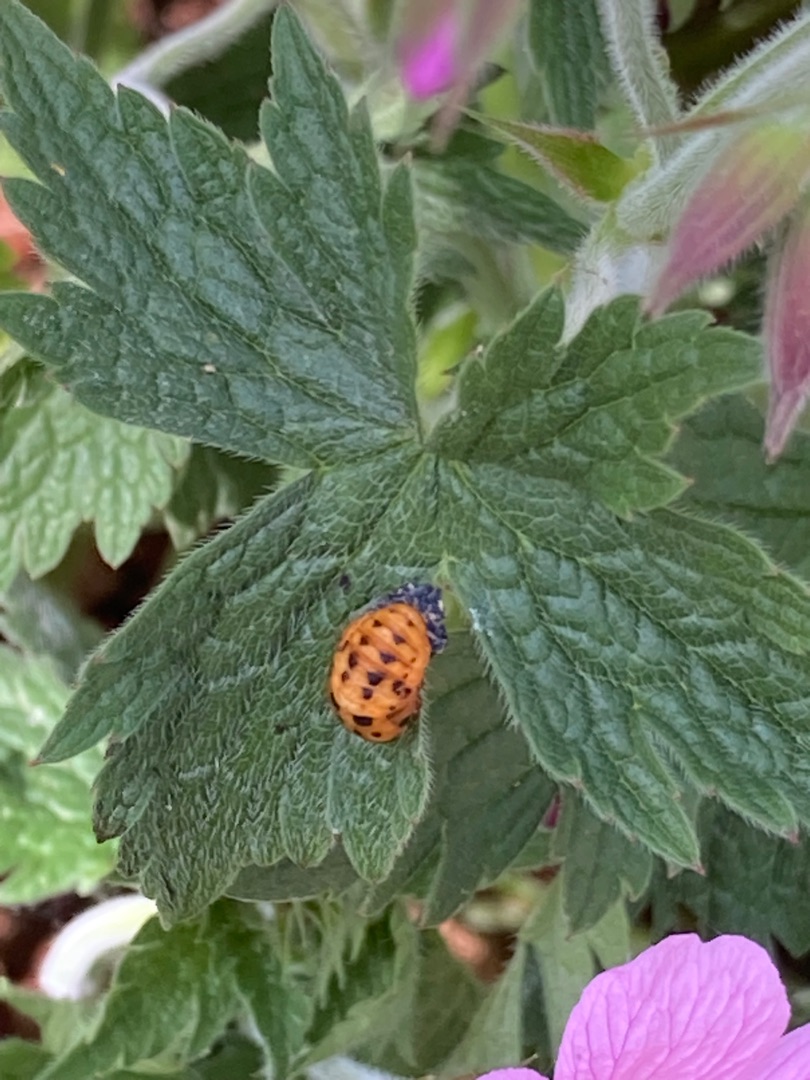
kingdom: Animalia
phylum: Arthropoda
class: Insecta
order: Coleoptera
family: Coccinellidae
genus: Harmonia
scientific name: Harmonia axyridis
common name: Harlekinmariehøne
